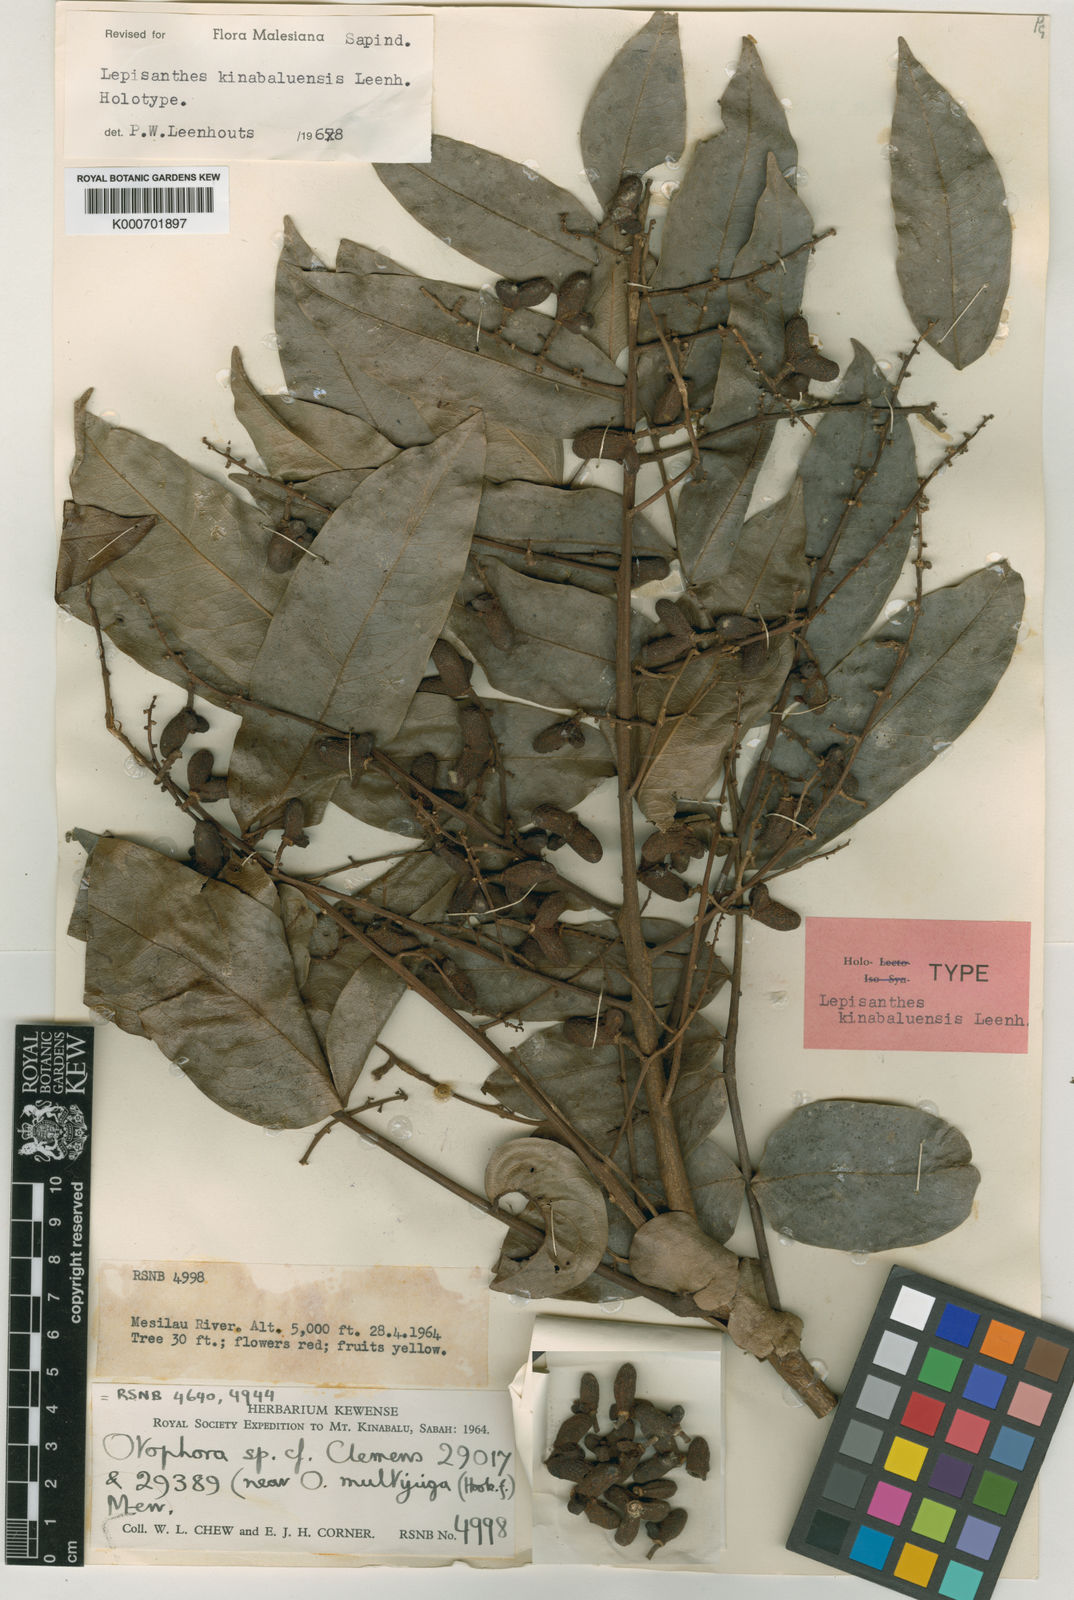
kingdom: Plantae
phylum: Tracheophyta
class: Magnoliopsida
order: Sapindales
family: Sapindaceae
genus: Lepisanthes
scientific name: Lepisanthes kinabaluensis
